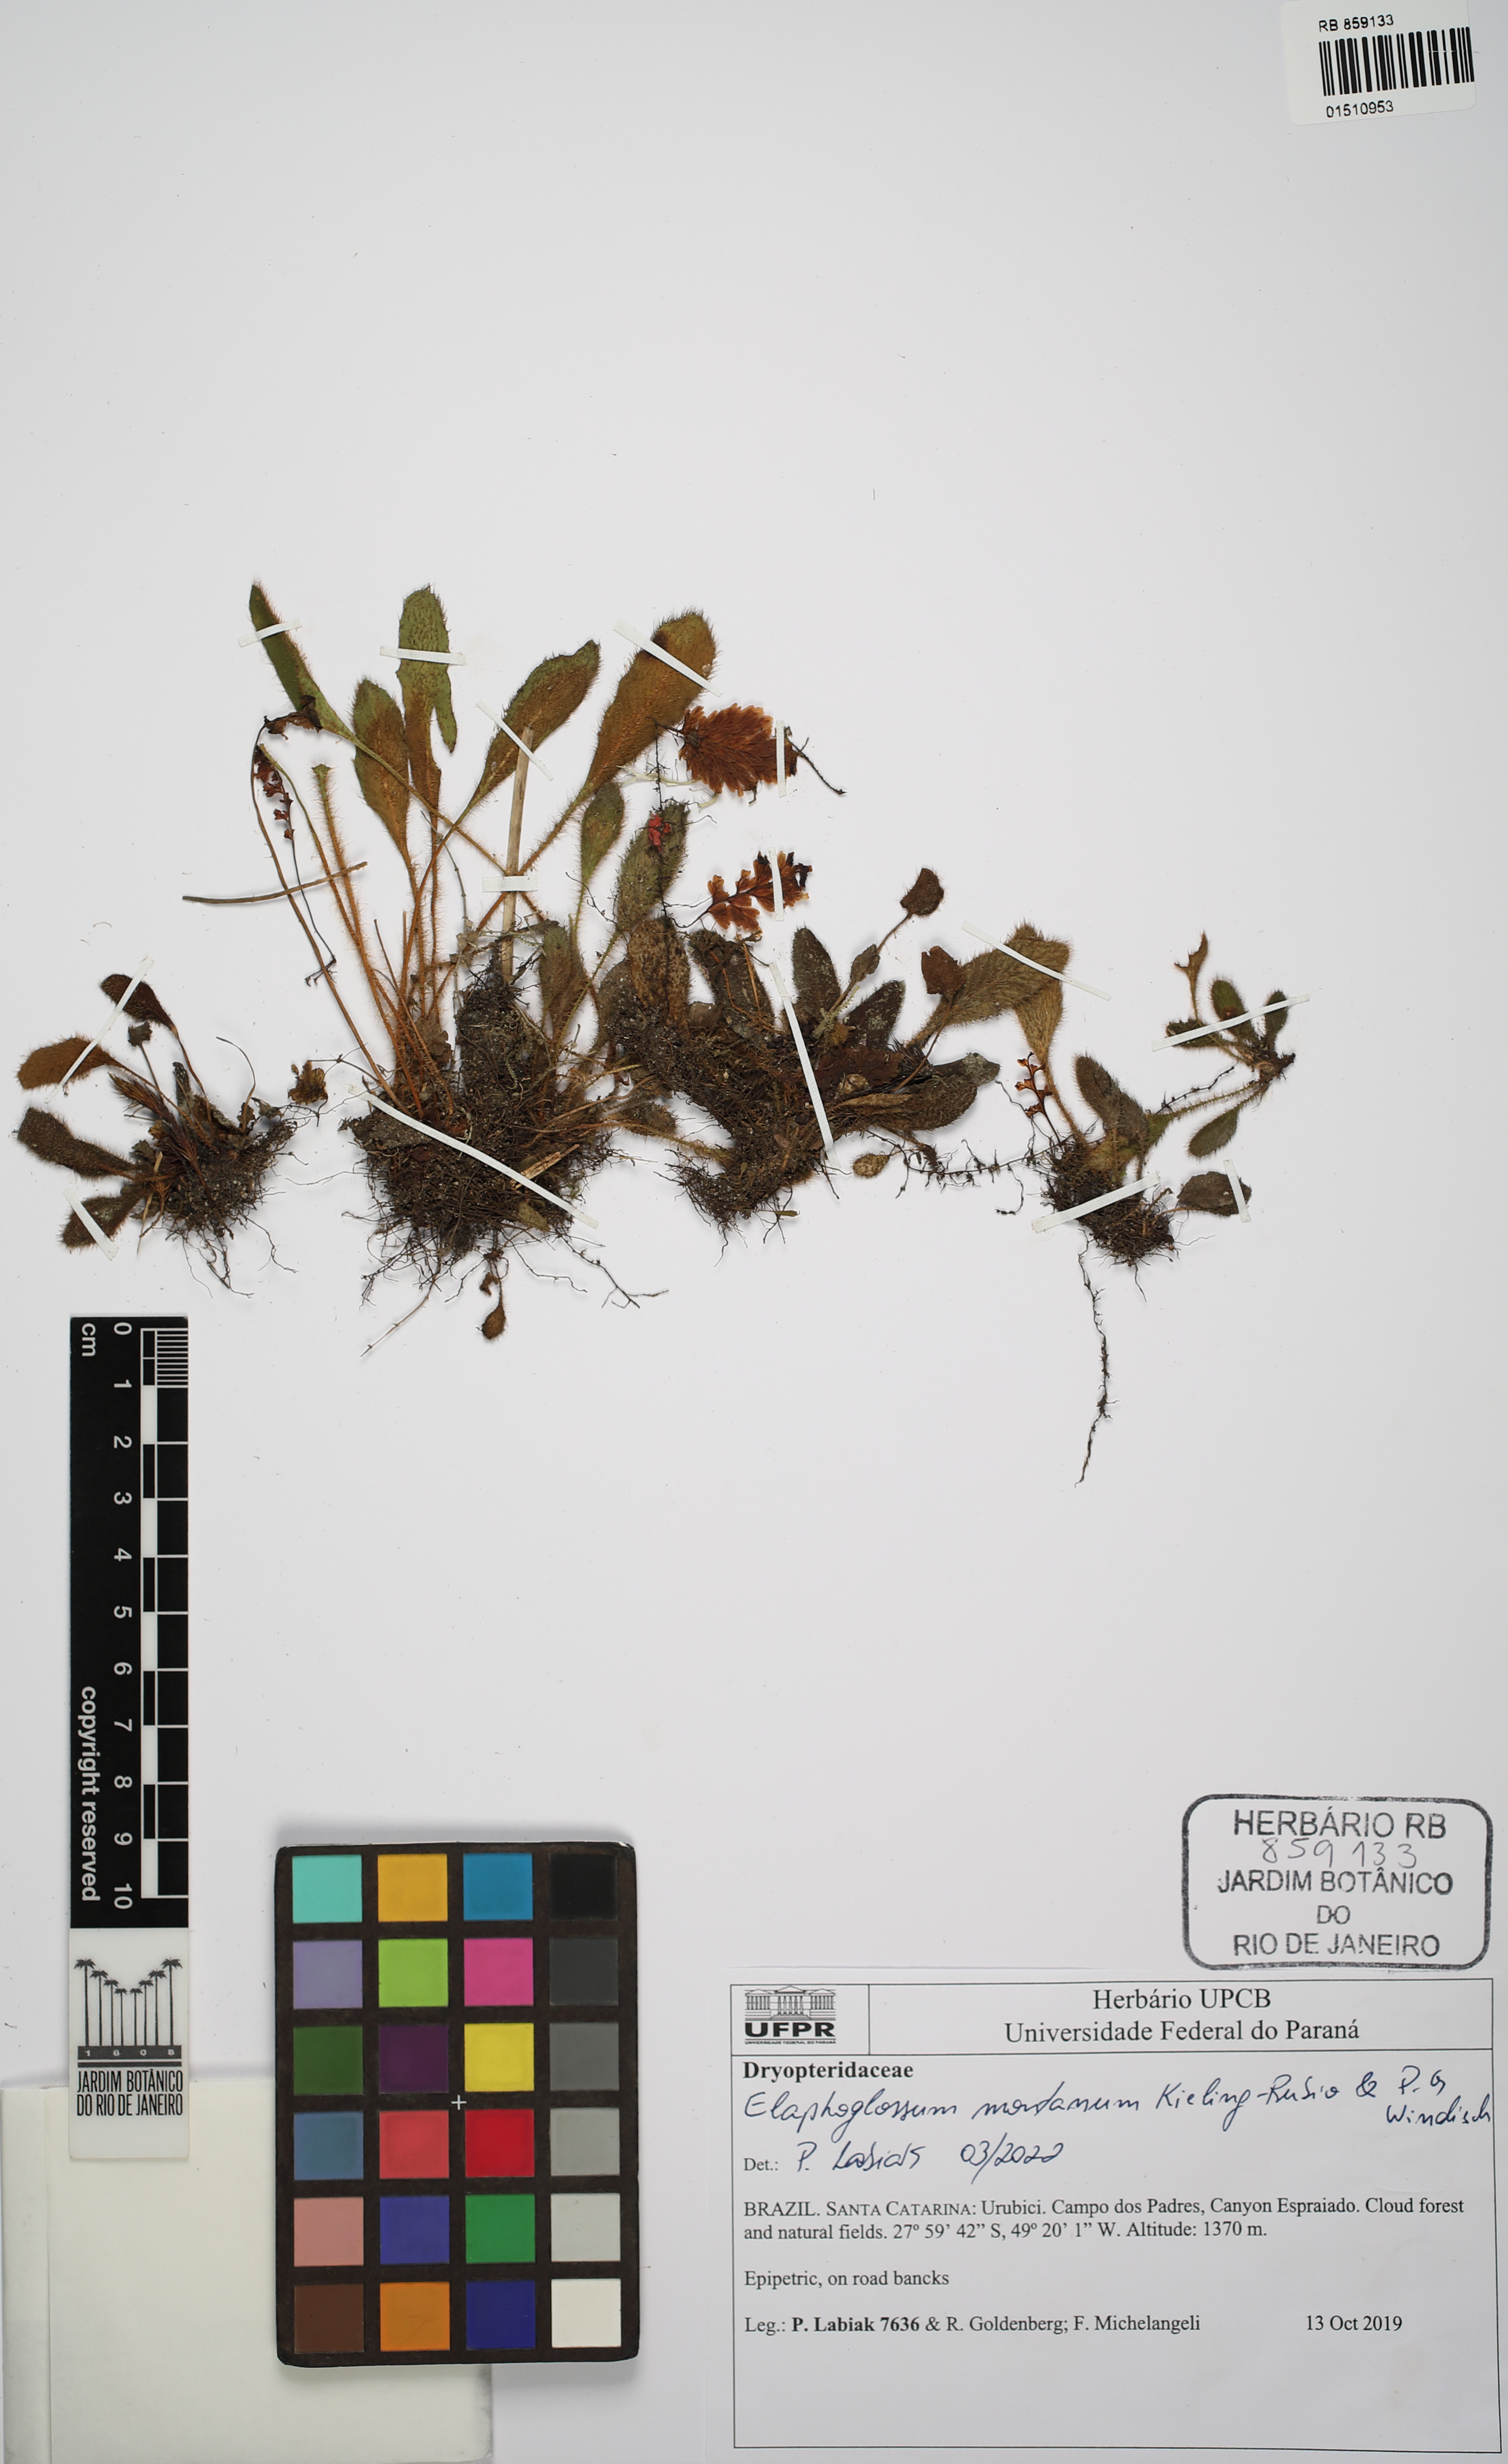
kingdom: Plantae
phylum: Tracheophyta
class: Polypodiopsida
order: Polypodiales
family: Dryopteridaceae
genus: Elaphoglossum
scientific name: Elaphoglossum montanum
